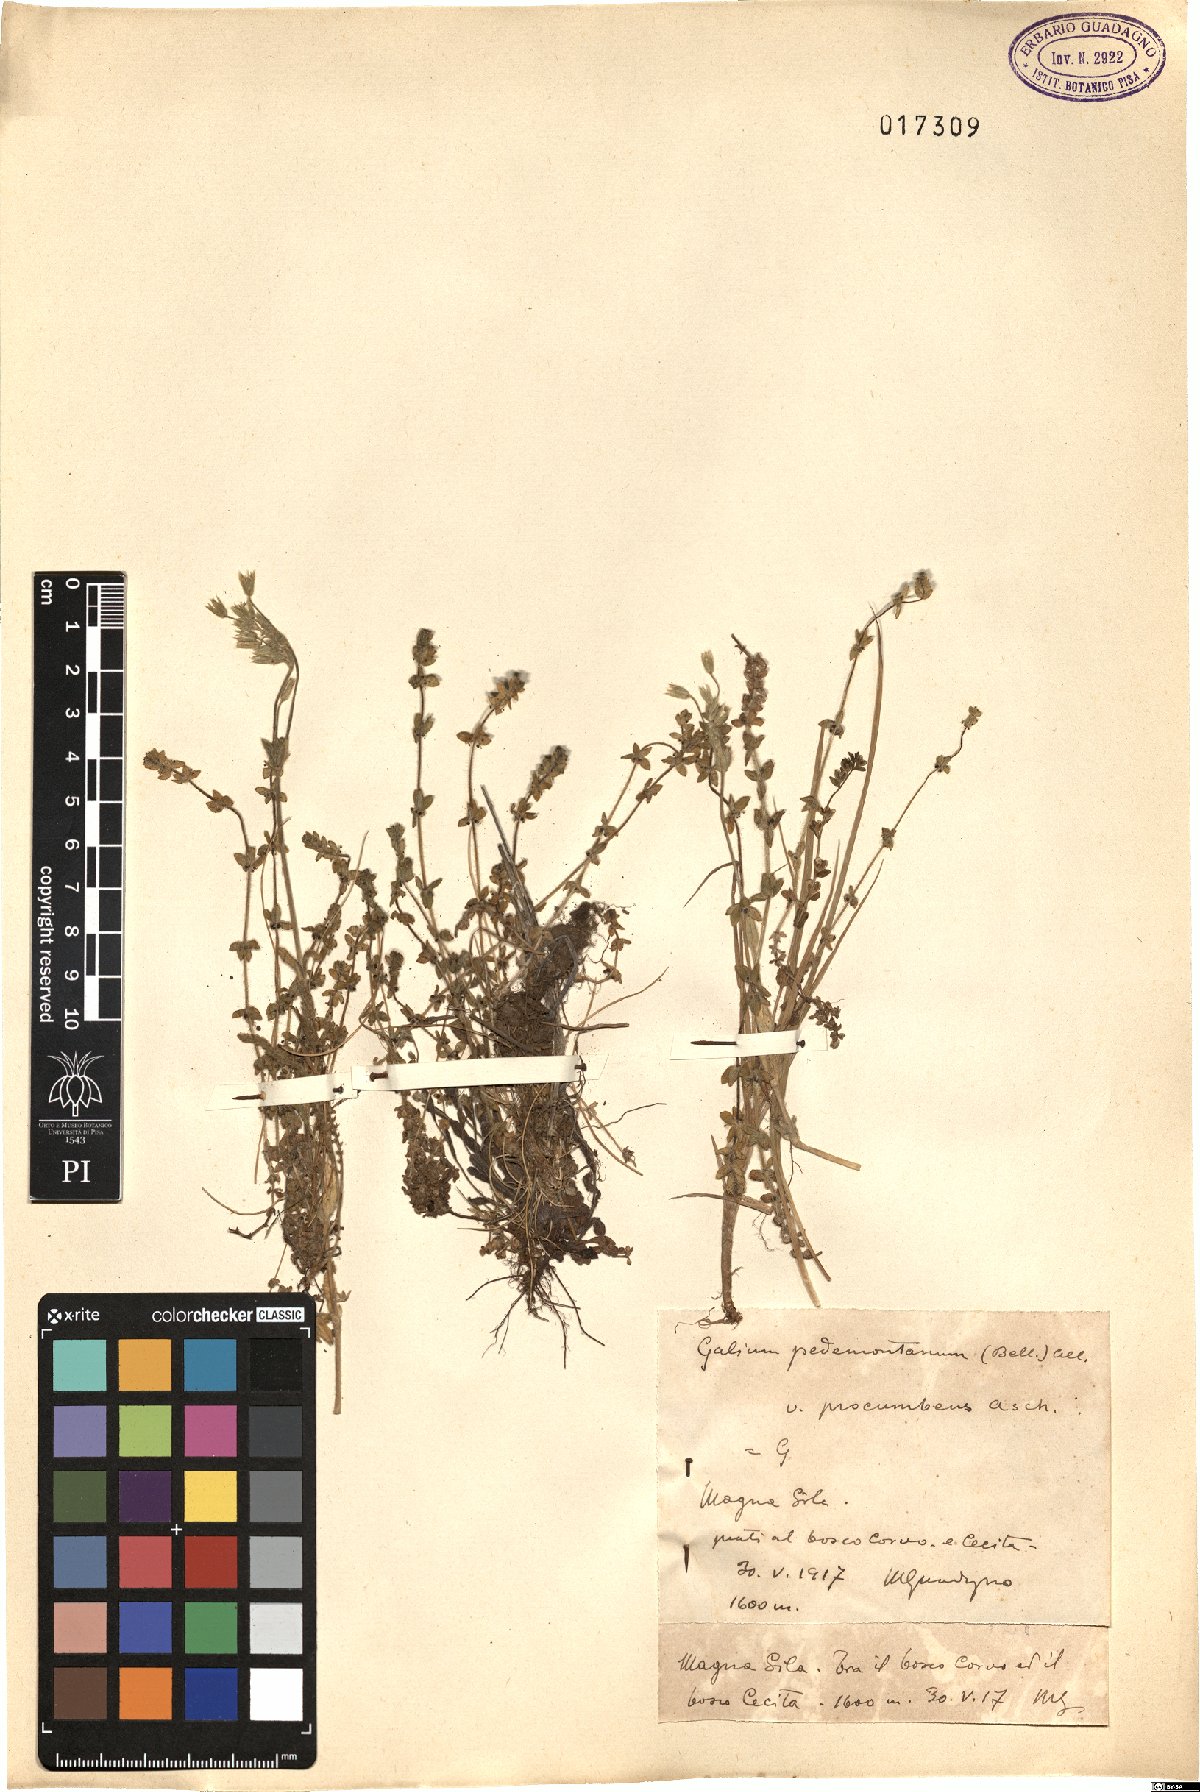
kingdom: Plantae
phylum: Tracheophyta
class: Magnoliopsida
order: Gentianales
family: Rubiaceae
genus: Cruciata
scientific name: Cruciata pedemontana
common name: Piedmont bedstraw
